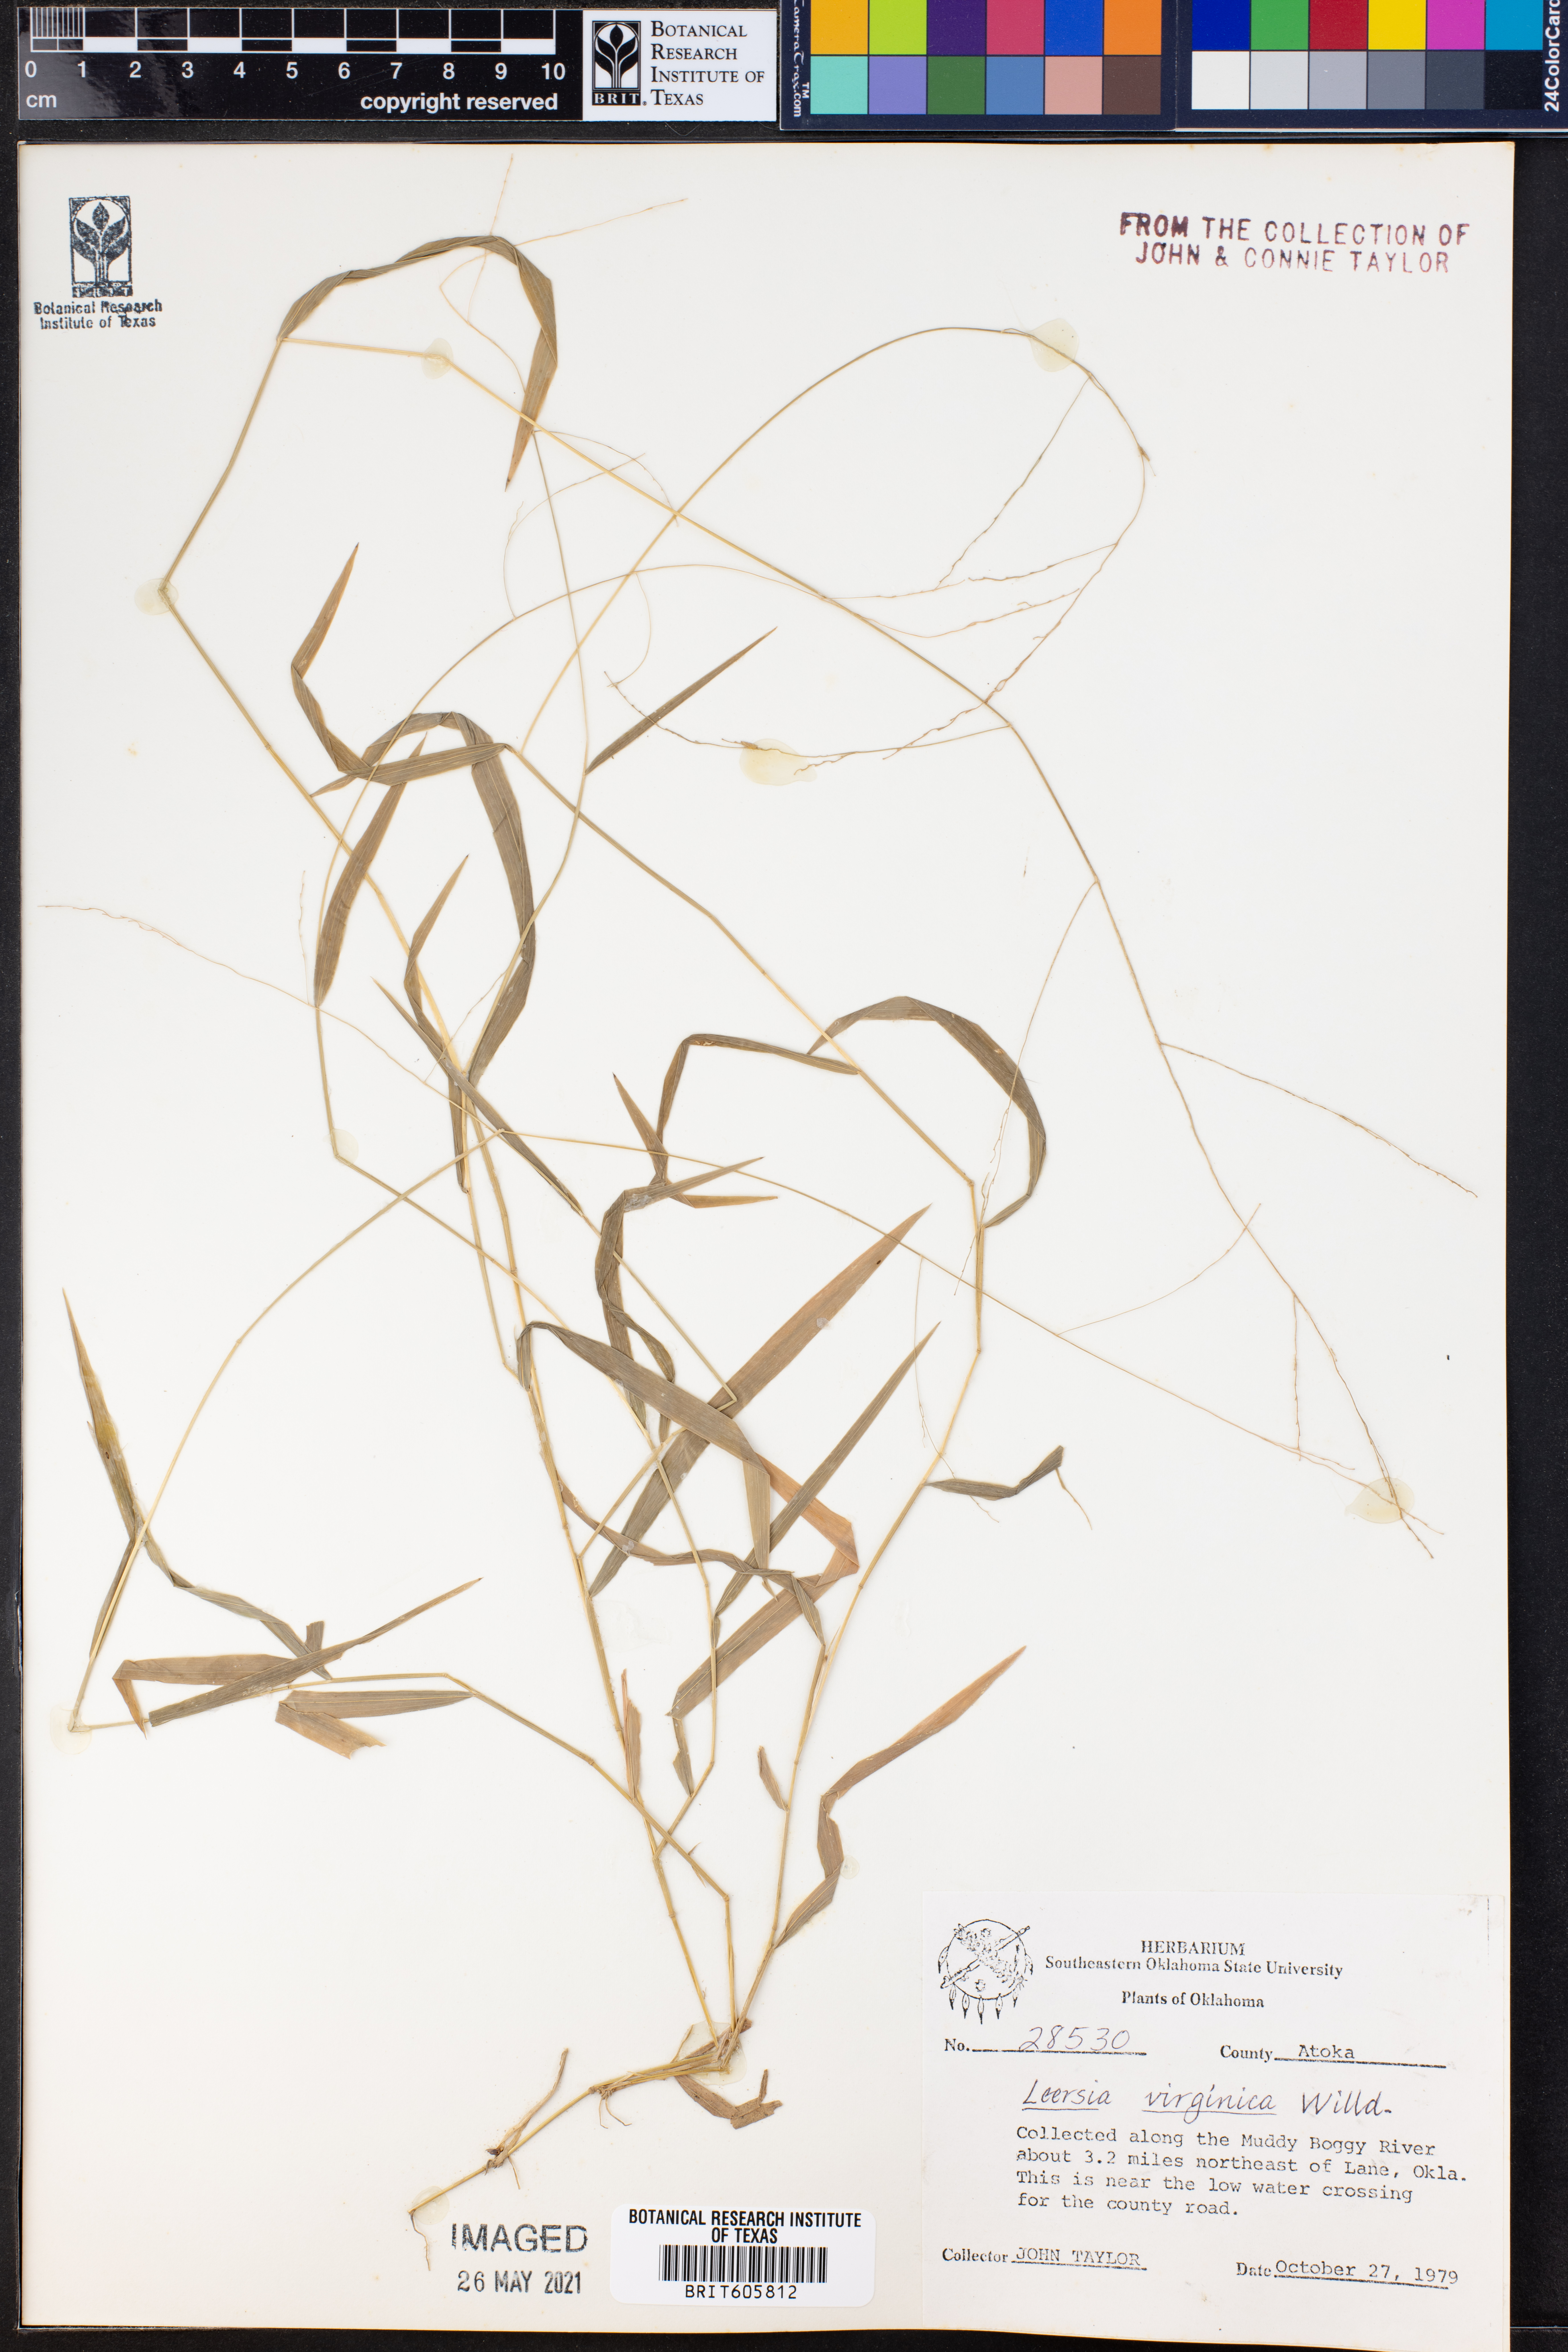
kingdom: Plantae
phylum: Tracheophyta
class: Liliopsida
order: Poales
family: Poaceae
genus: Leersia
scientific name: Leersia virginica
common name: White cutgrass
